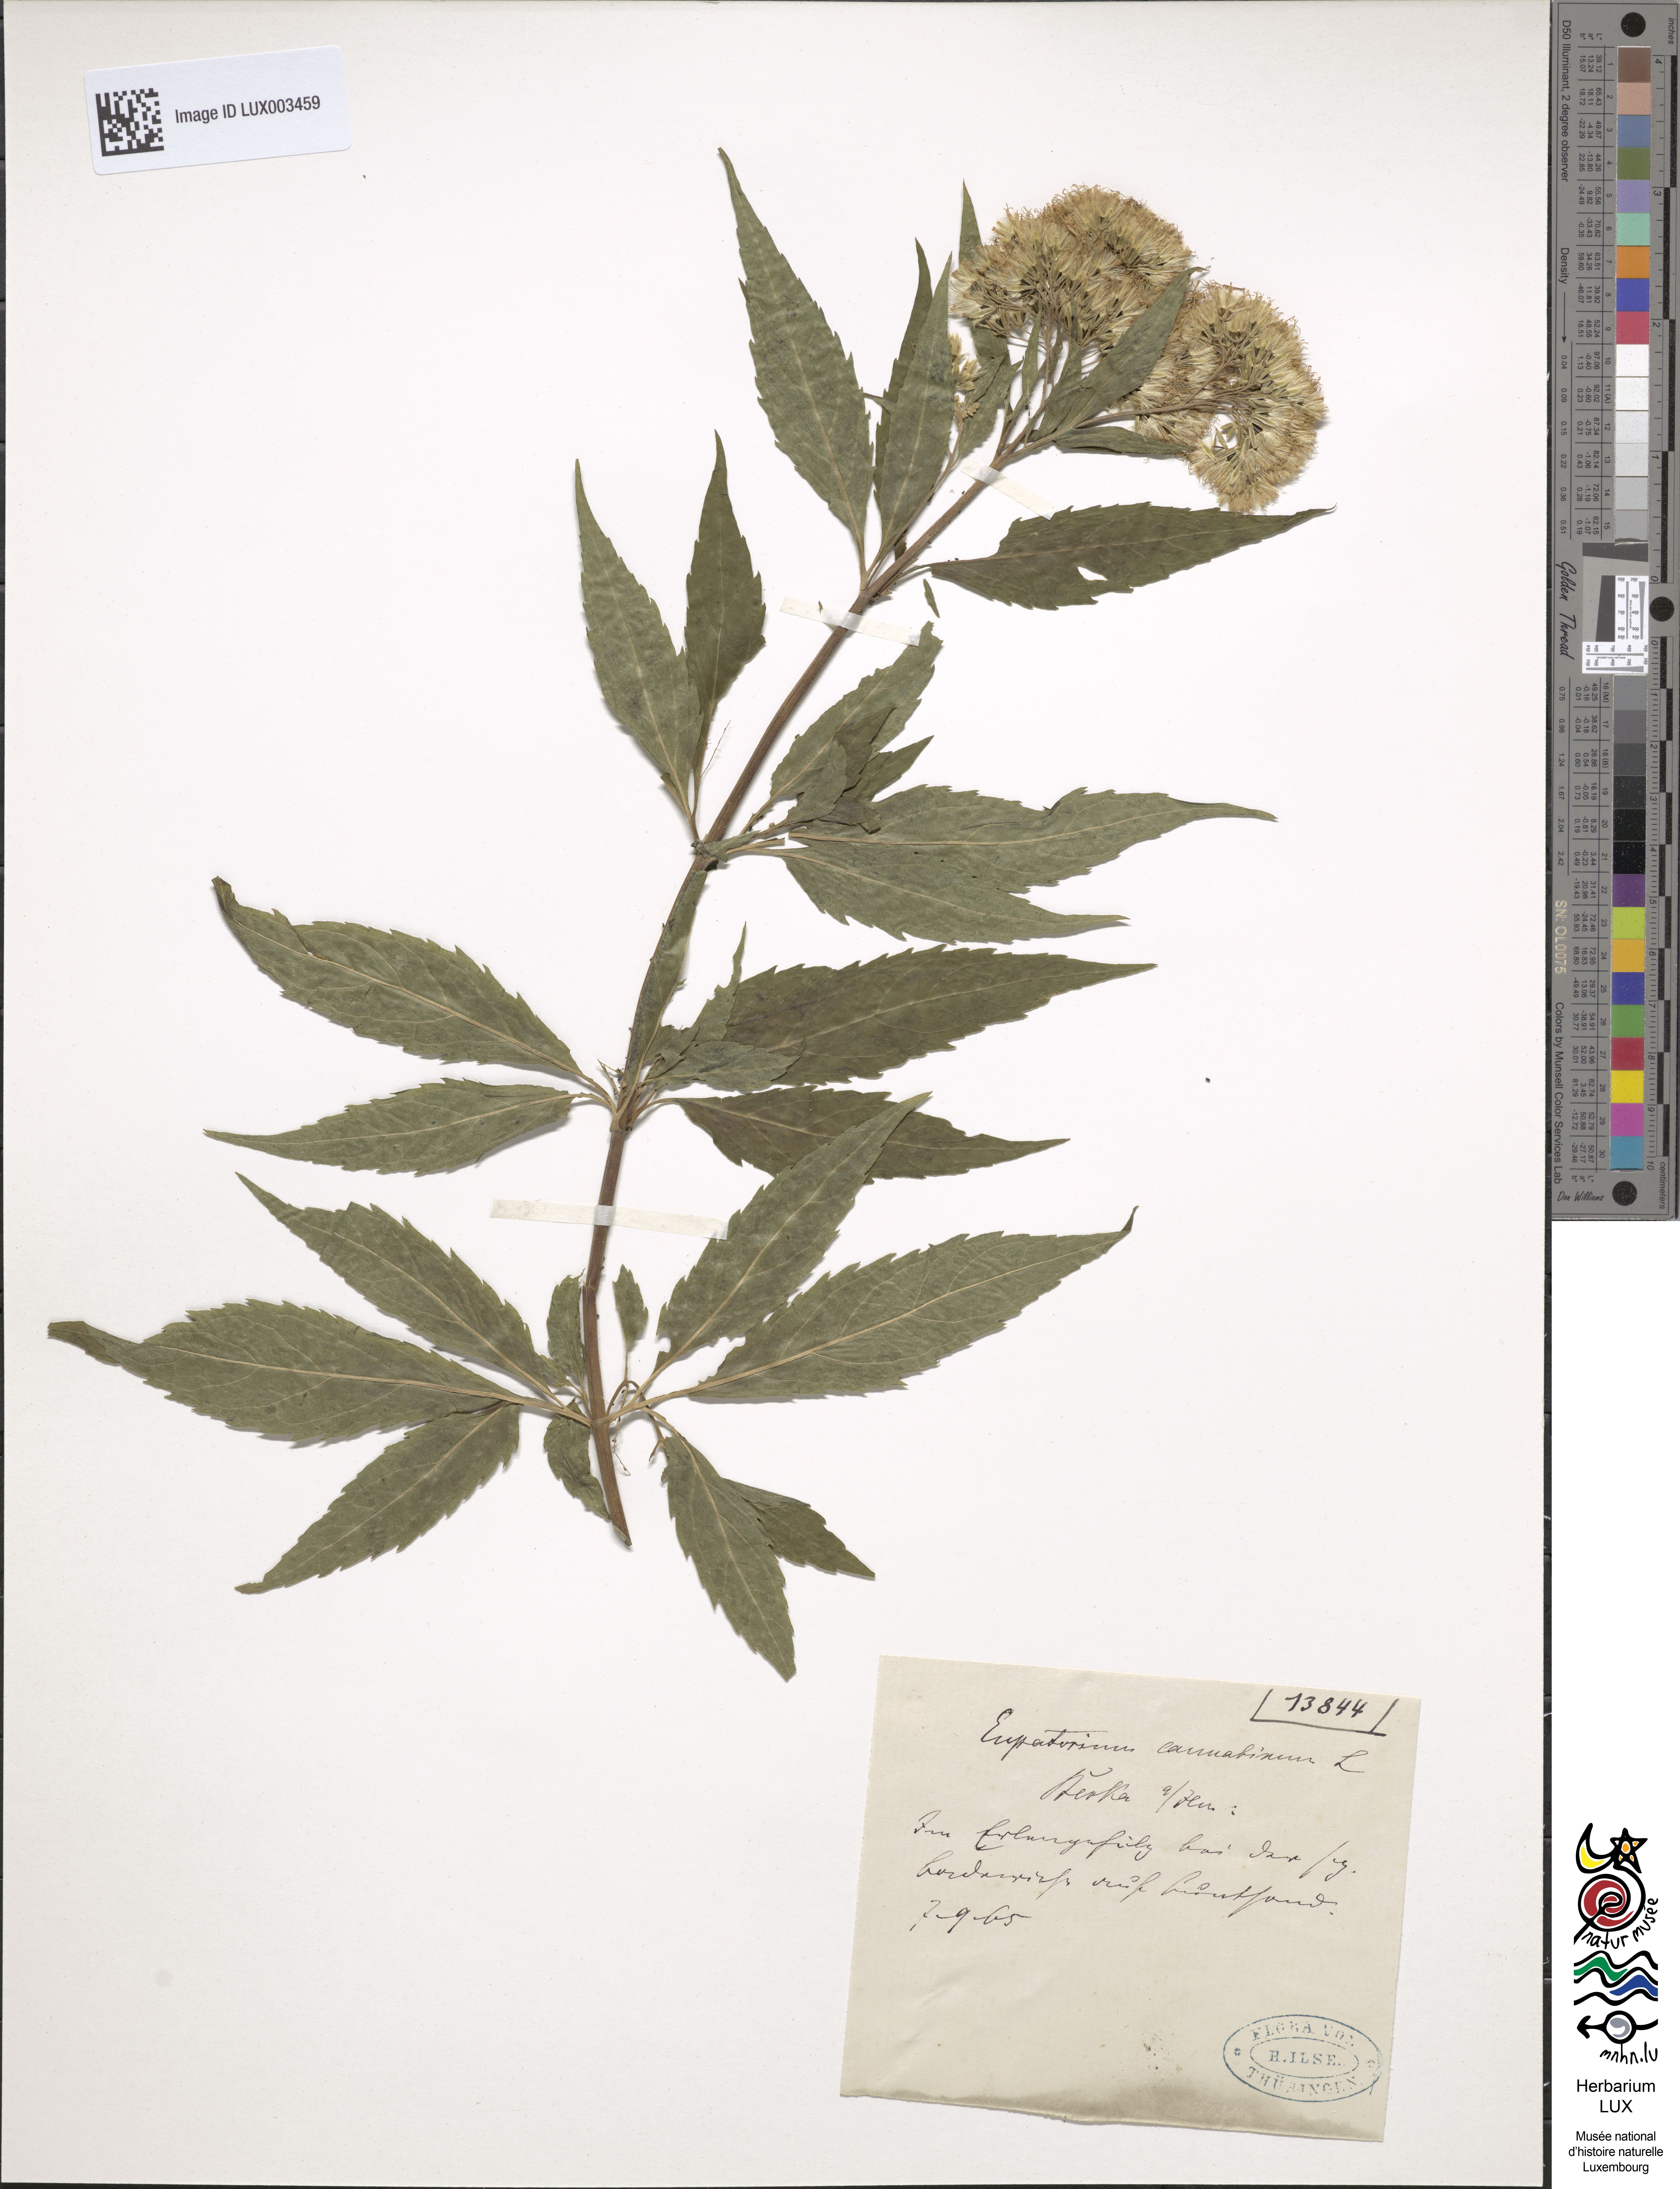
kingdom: Plantae
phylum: Tracheophyta
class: Magnoliopsida
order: Asterales
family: Asteraceae
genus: Eupatorium
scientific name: Eupatorium cannabinum
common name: Hemp-agrimony
